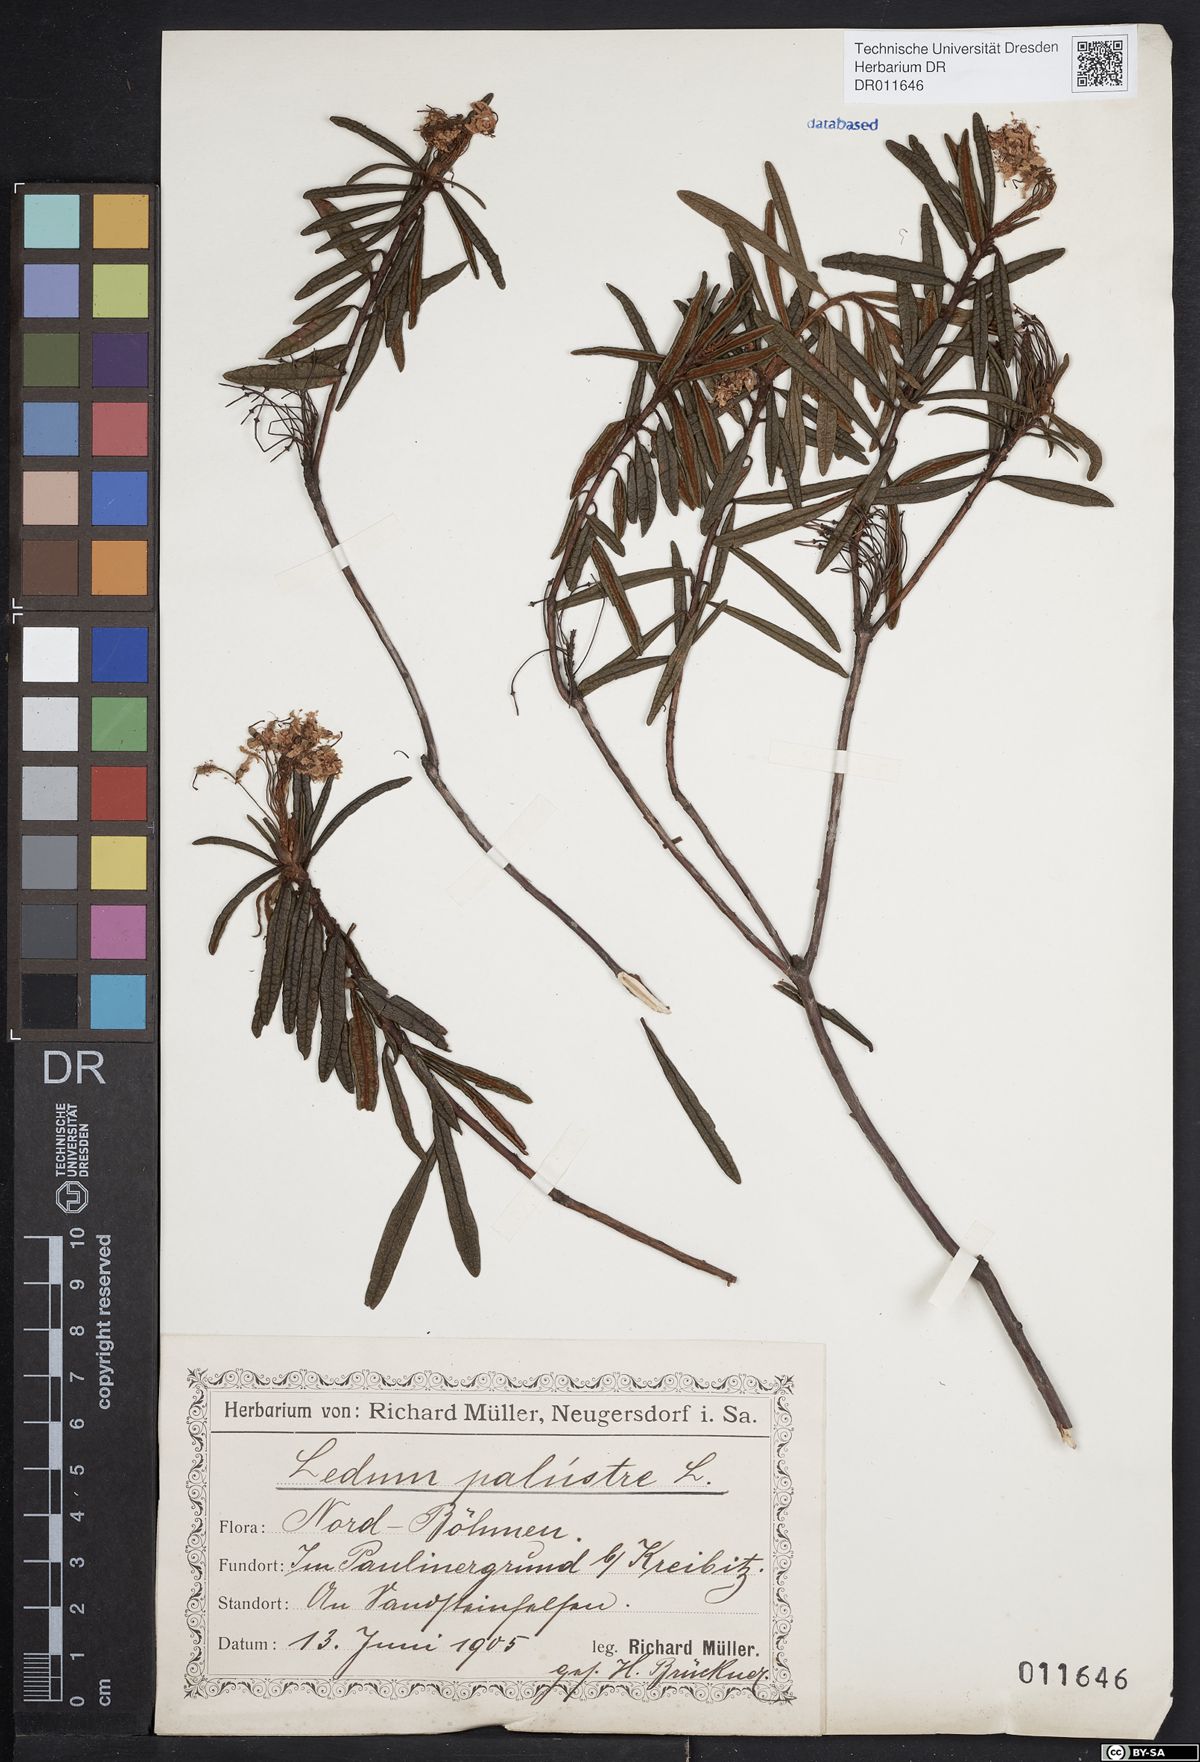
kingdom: Plantae
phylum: Tracheophyta
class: Magnoliopsida
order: Ericales
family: Ericaceae
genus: Rhododendron
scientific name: Rhododendron tomentosum
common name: Marsh labrador tea
